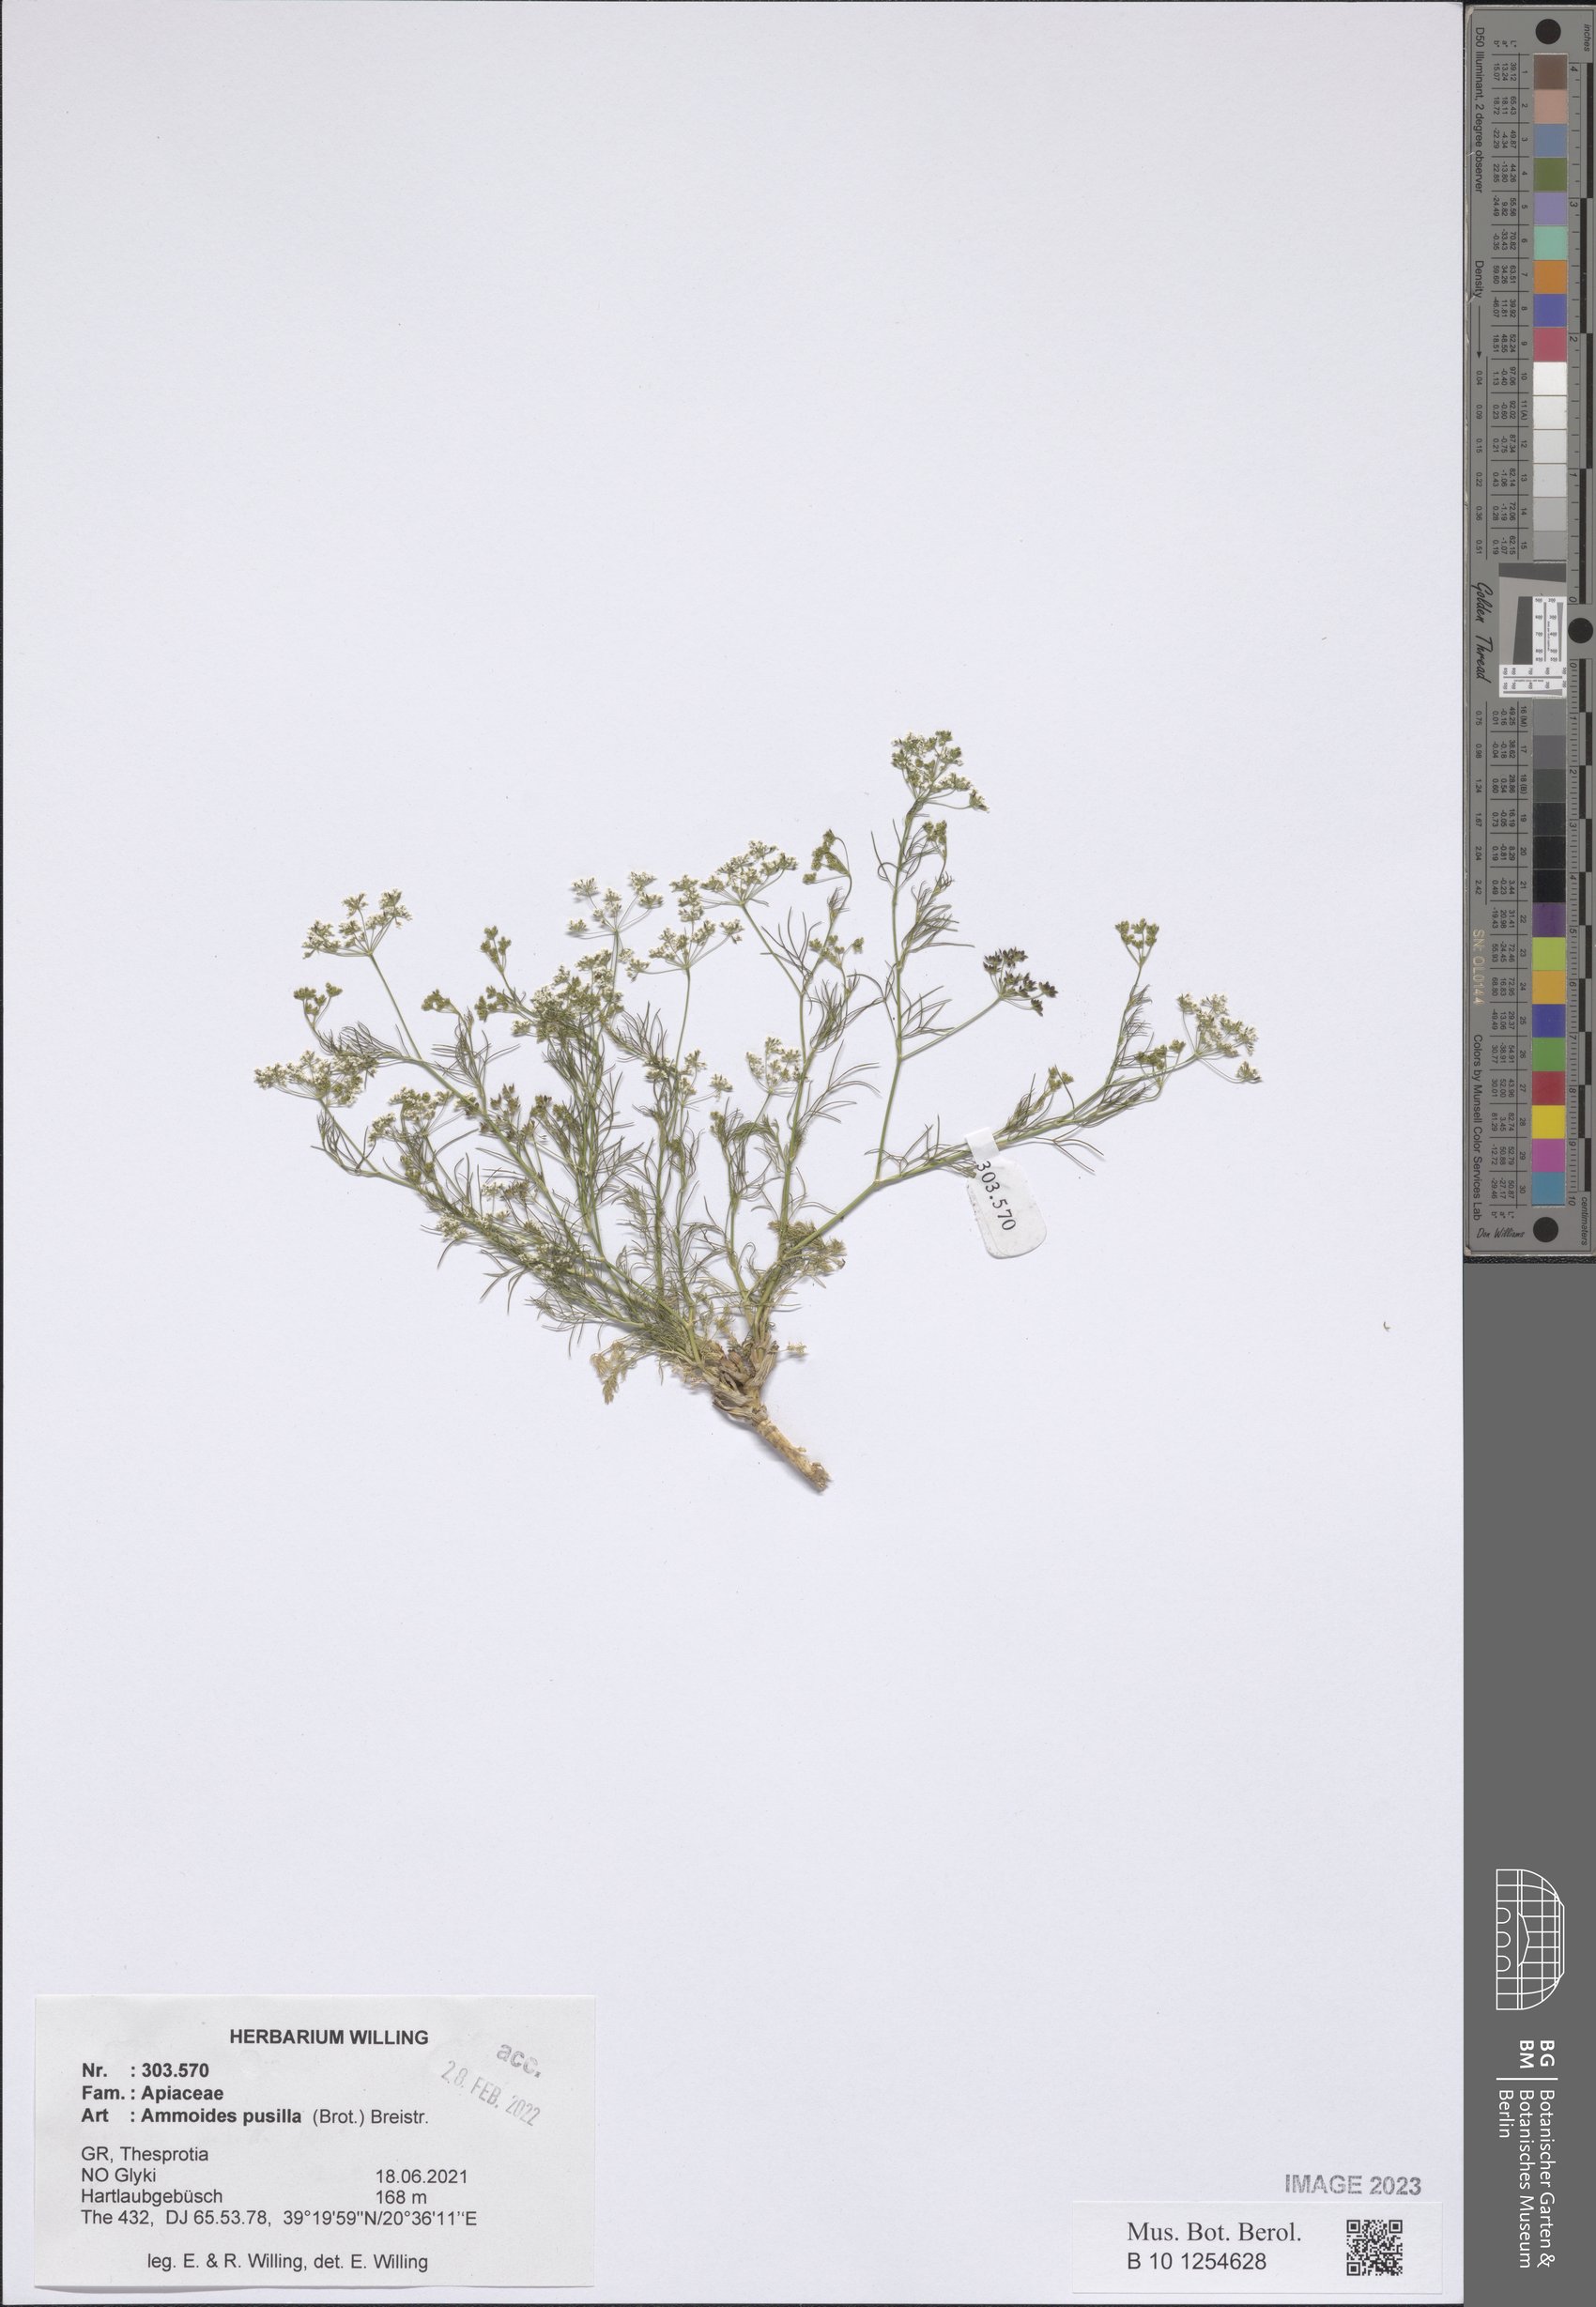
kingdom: Plantae
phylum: Tracheophyta
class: Magnoliopsida
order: Apiales
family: Apiaceae
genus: Ammoides
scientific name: Ammoides pusilla
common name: Cerfolium
